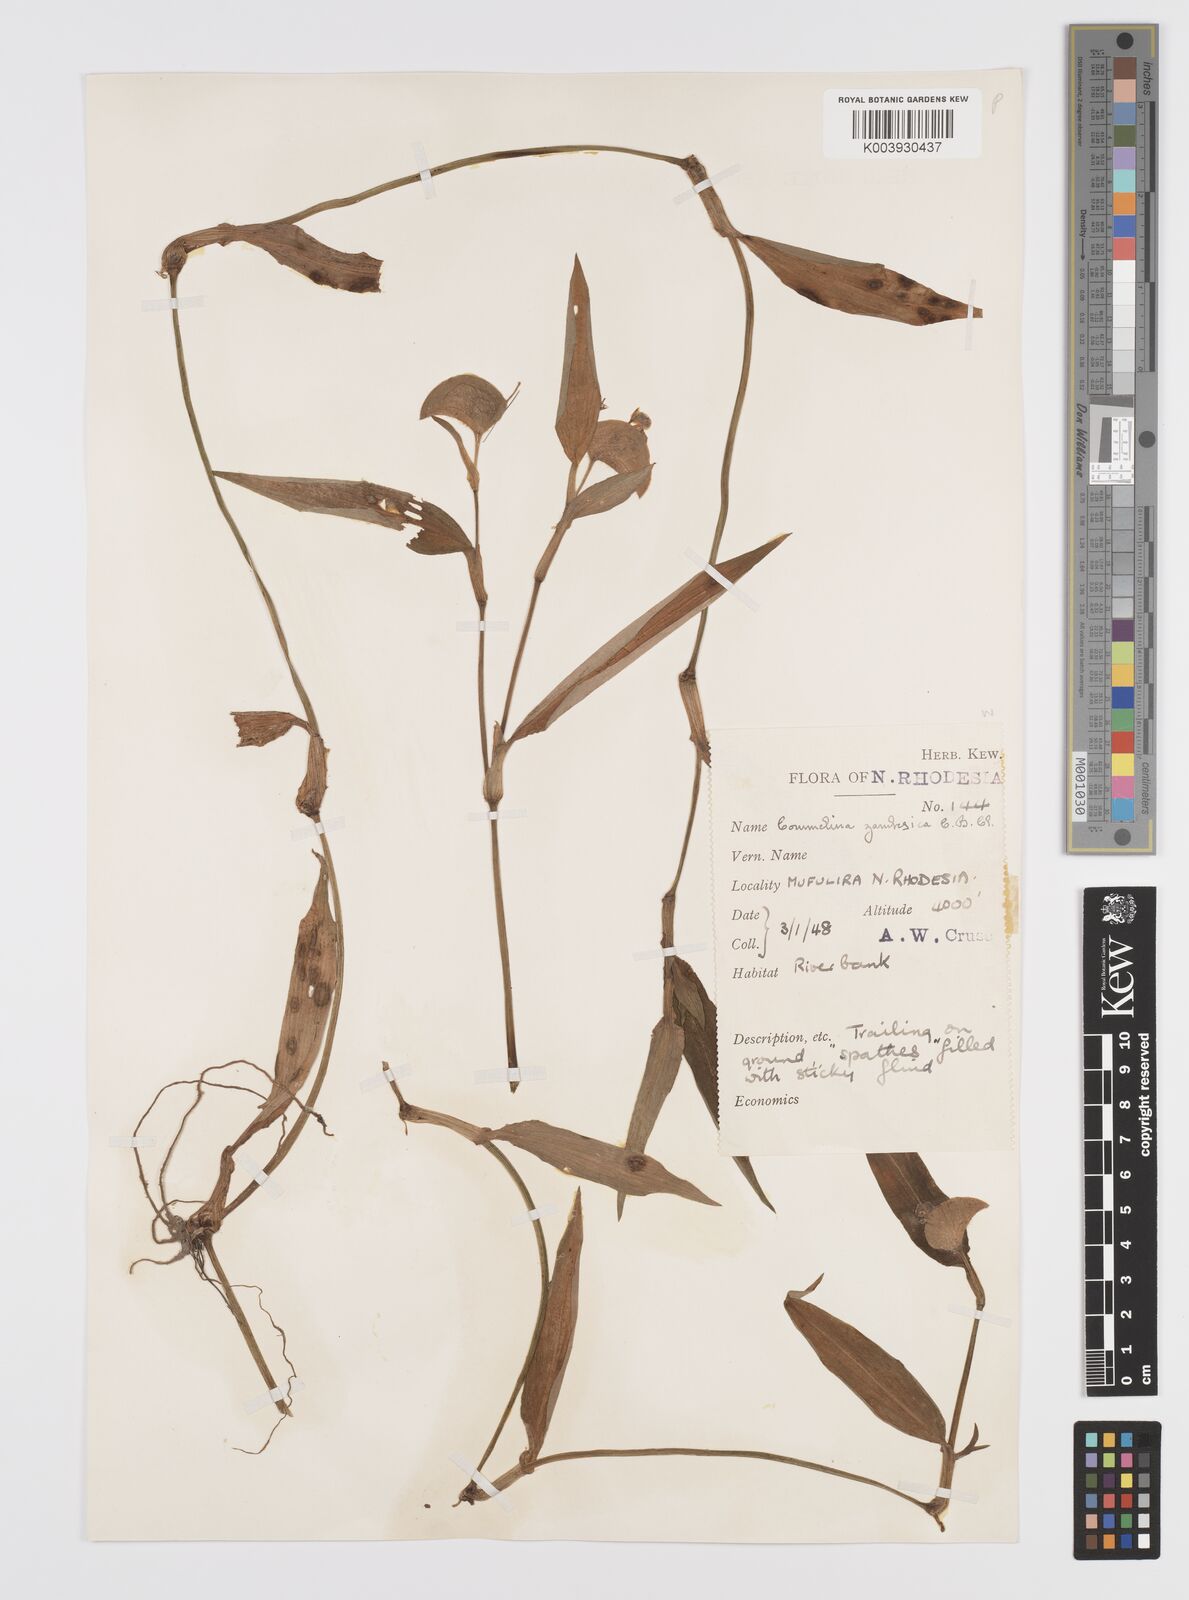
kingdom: Plantae
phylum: Tracheophyta
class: Liliopsida
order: Commelinales
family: Commelinaceae
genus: Commelina
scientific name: Commelina zambesica
